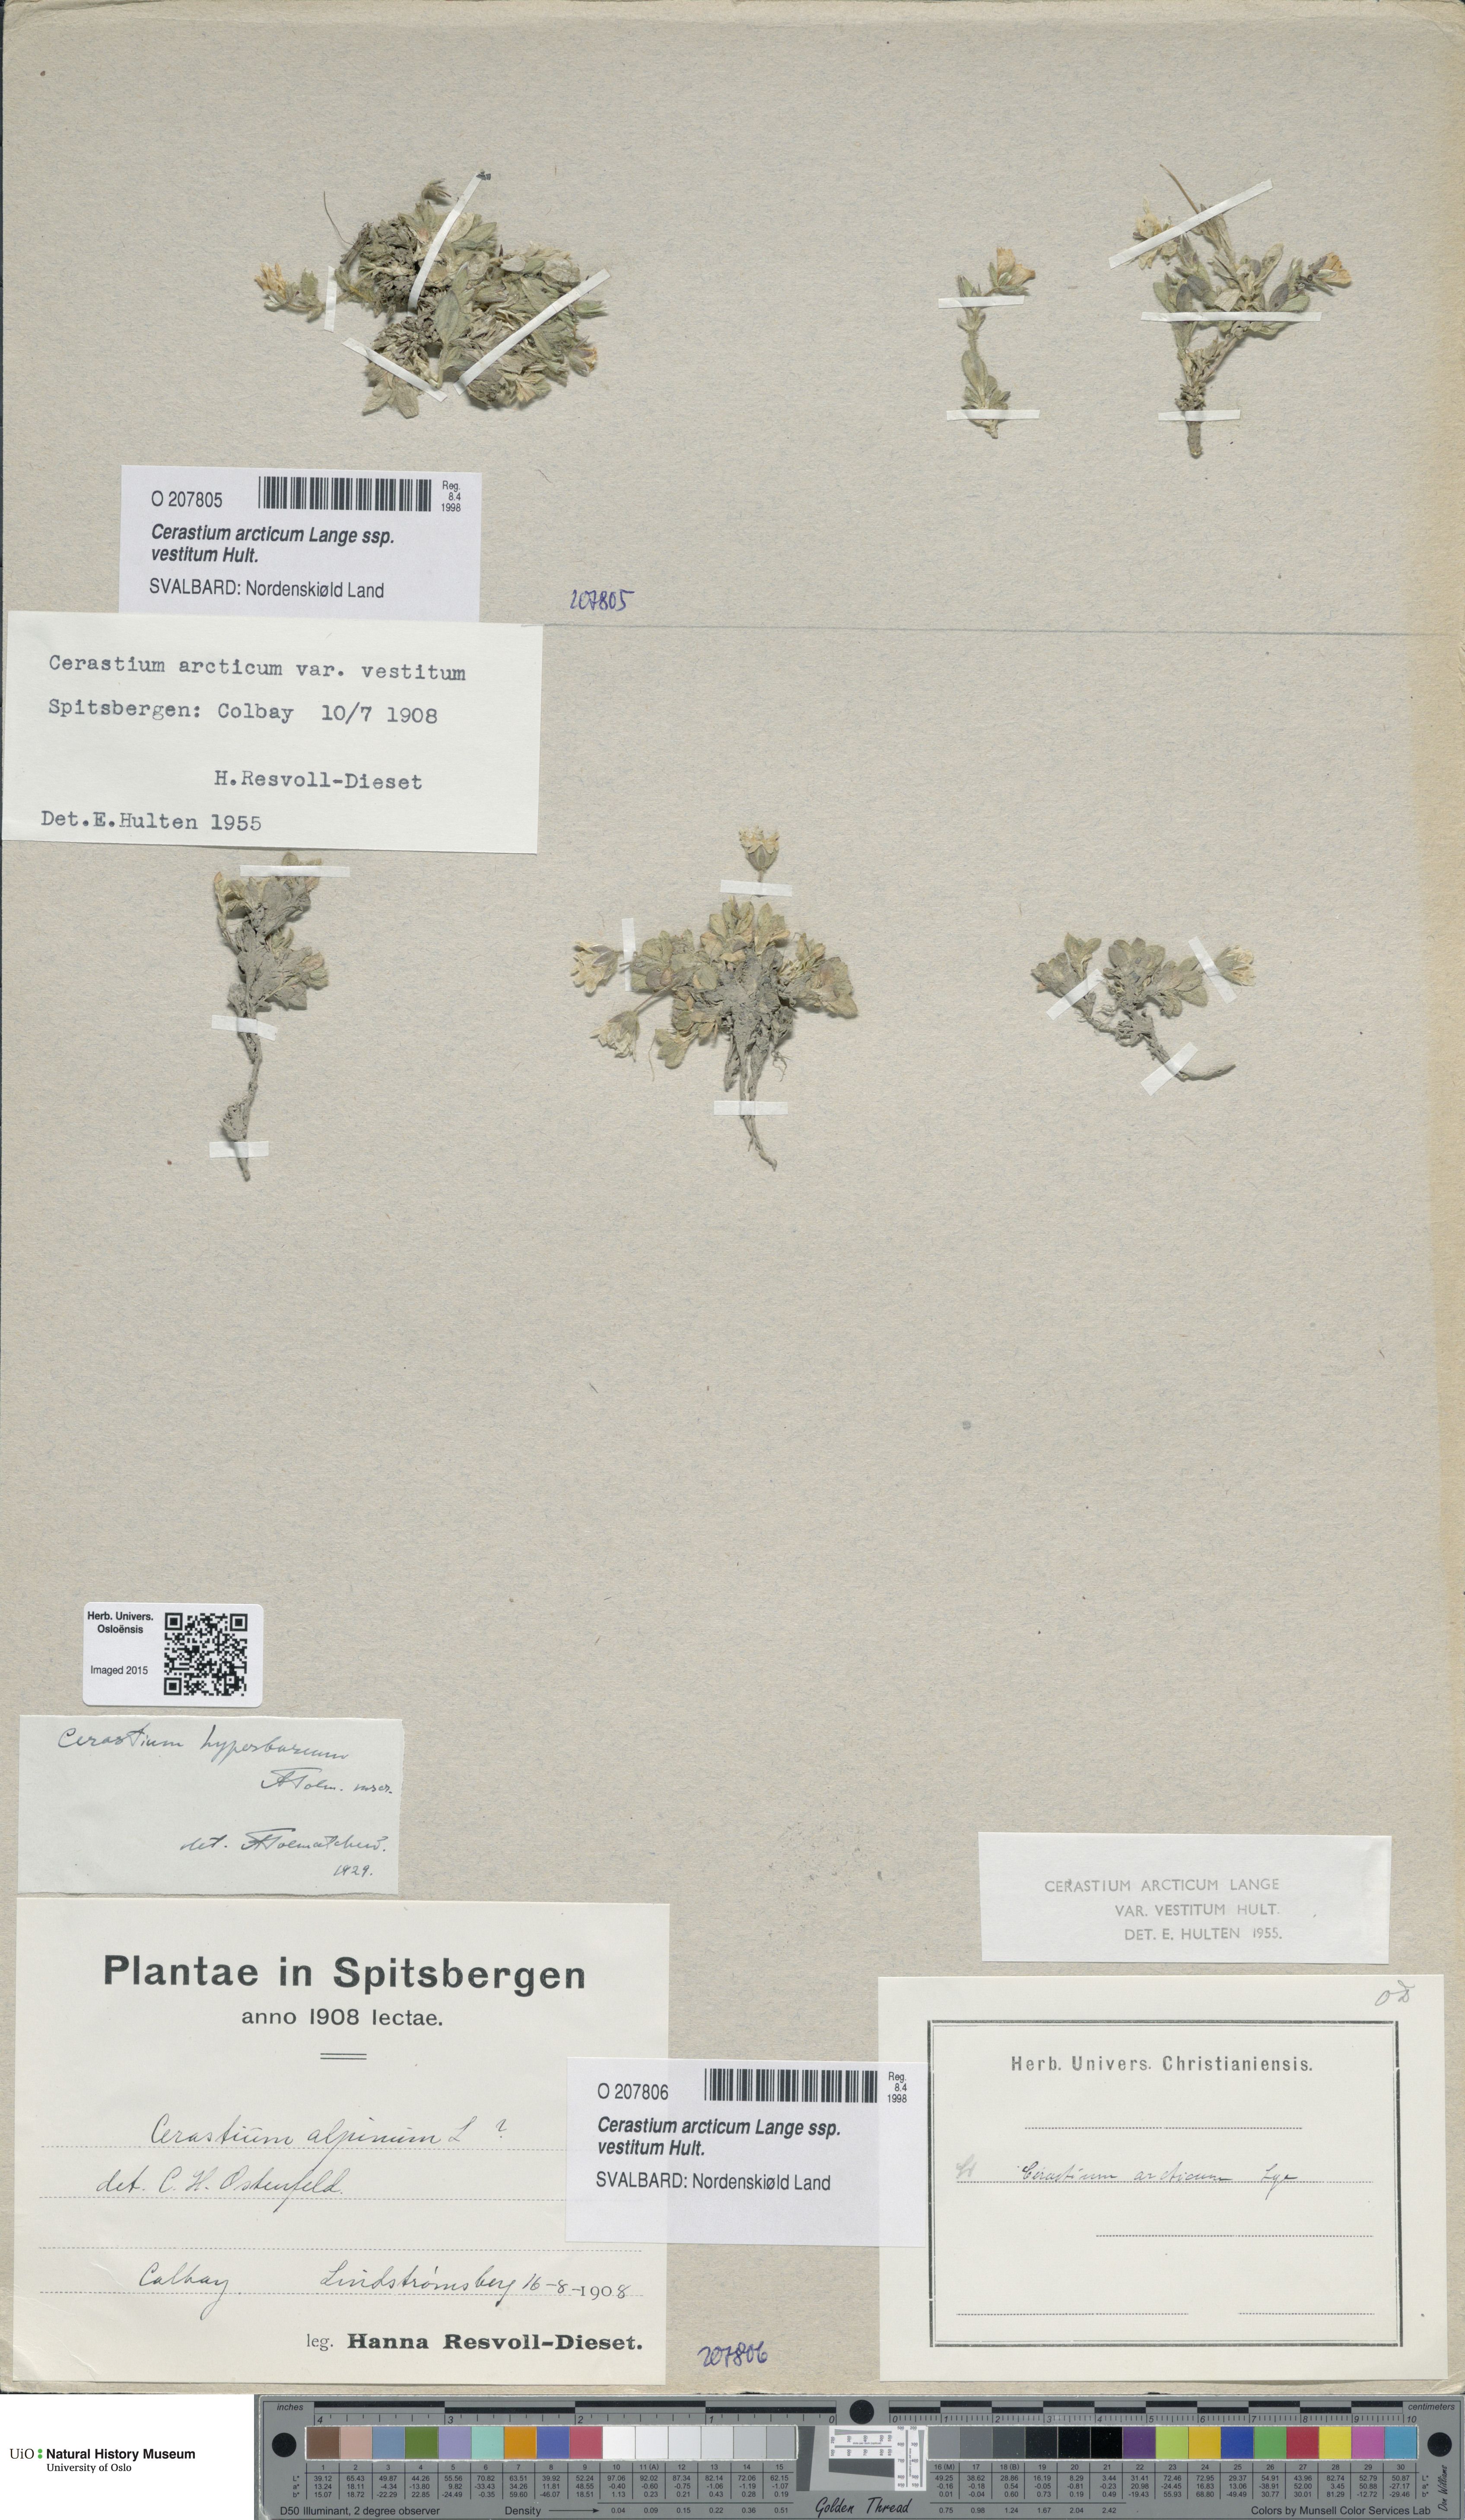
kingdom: Plantae
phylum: Tracheophyta
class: Magnoliopsida
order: Caryophyllales
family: Caryophyllaceae
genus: Cerastium
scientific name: Cerastium arcticum
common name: Arctic mouse-ear
